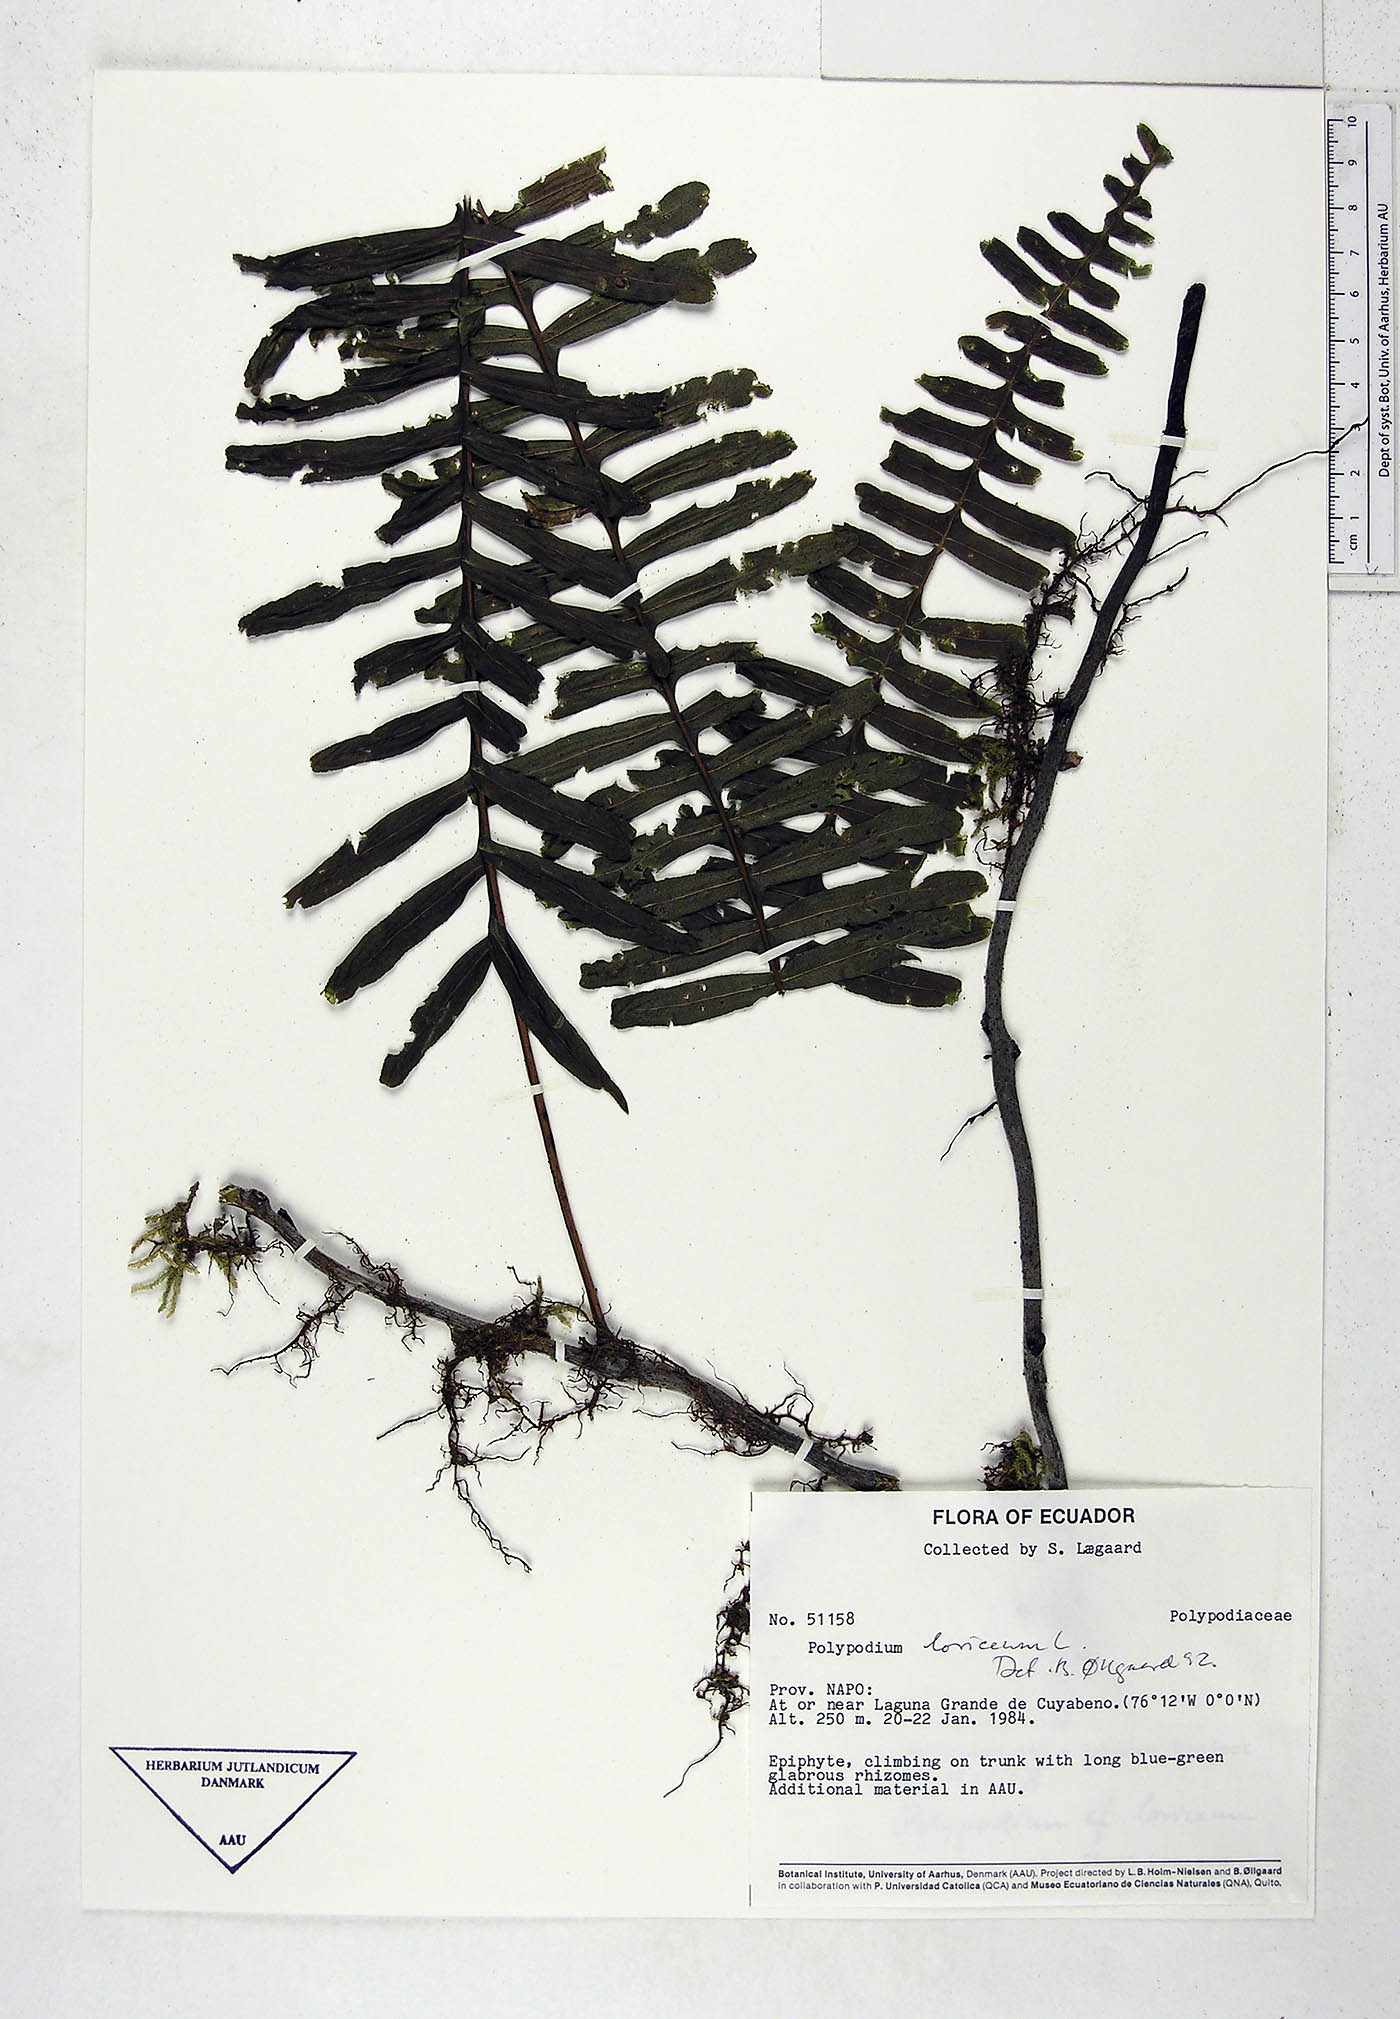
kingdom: Plantae
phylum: Tracheophyta
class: Polypodiopsida
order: Polypodiales
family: Polypodiaceae
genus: Polypodium
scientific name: Polypodium
